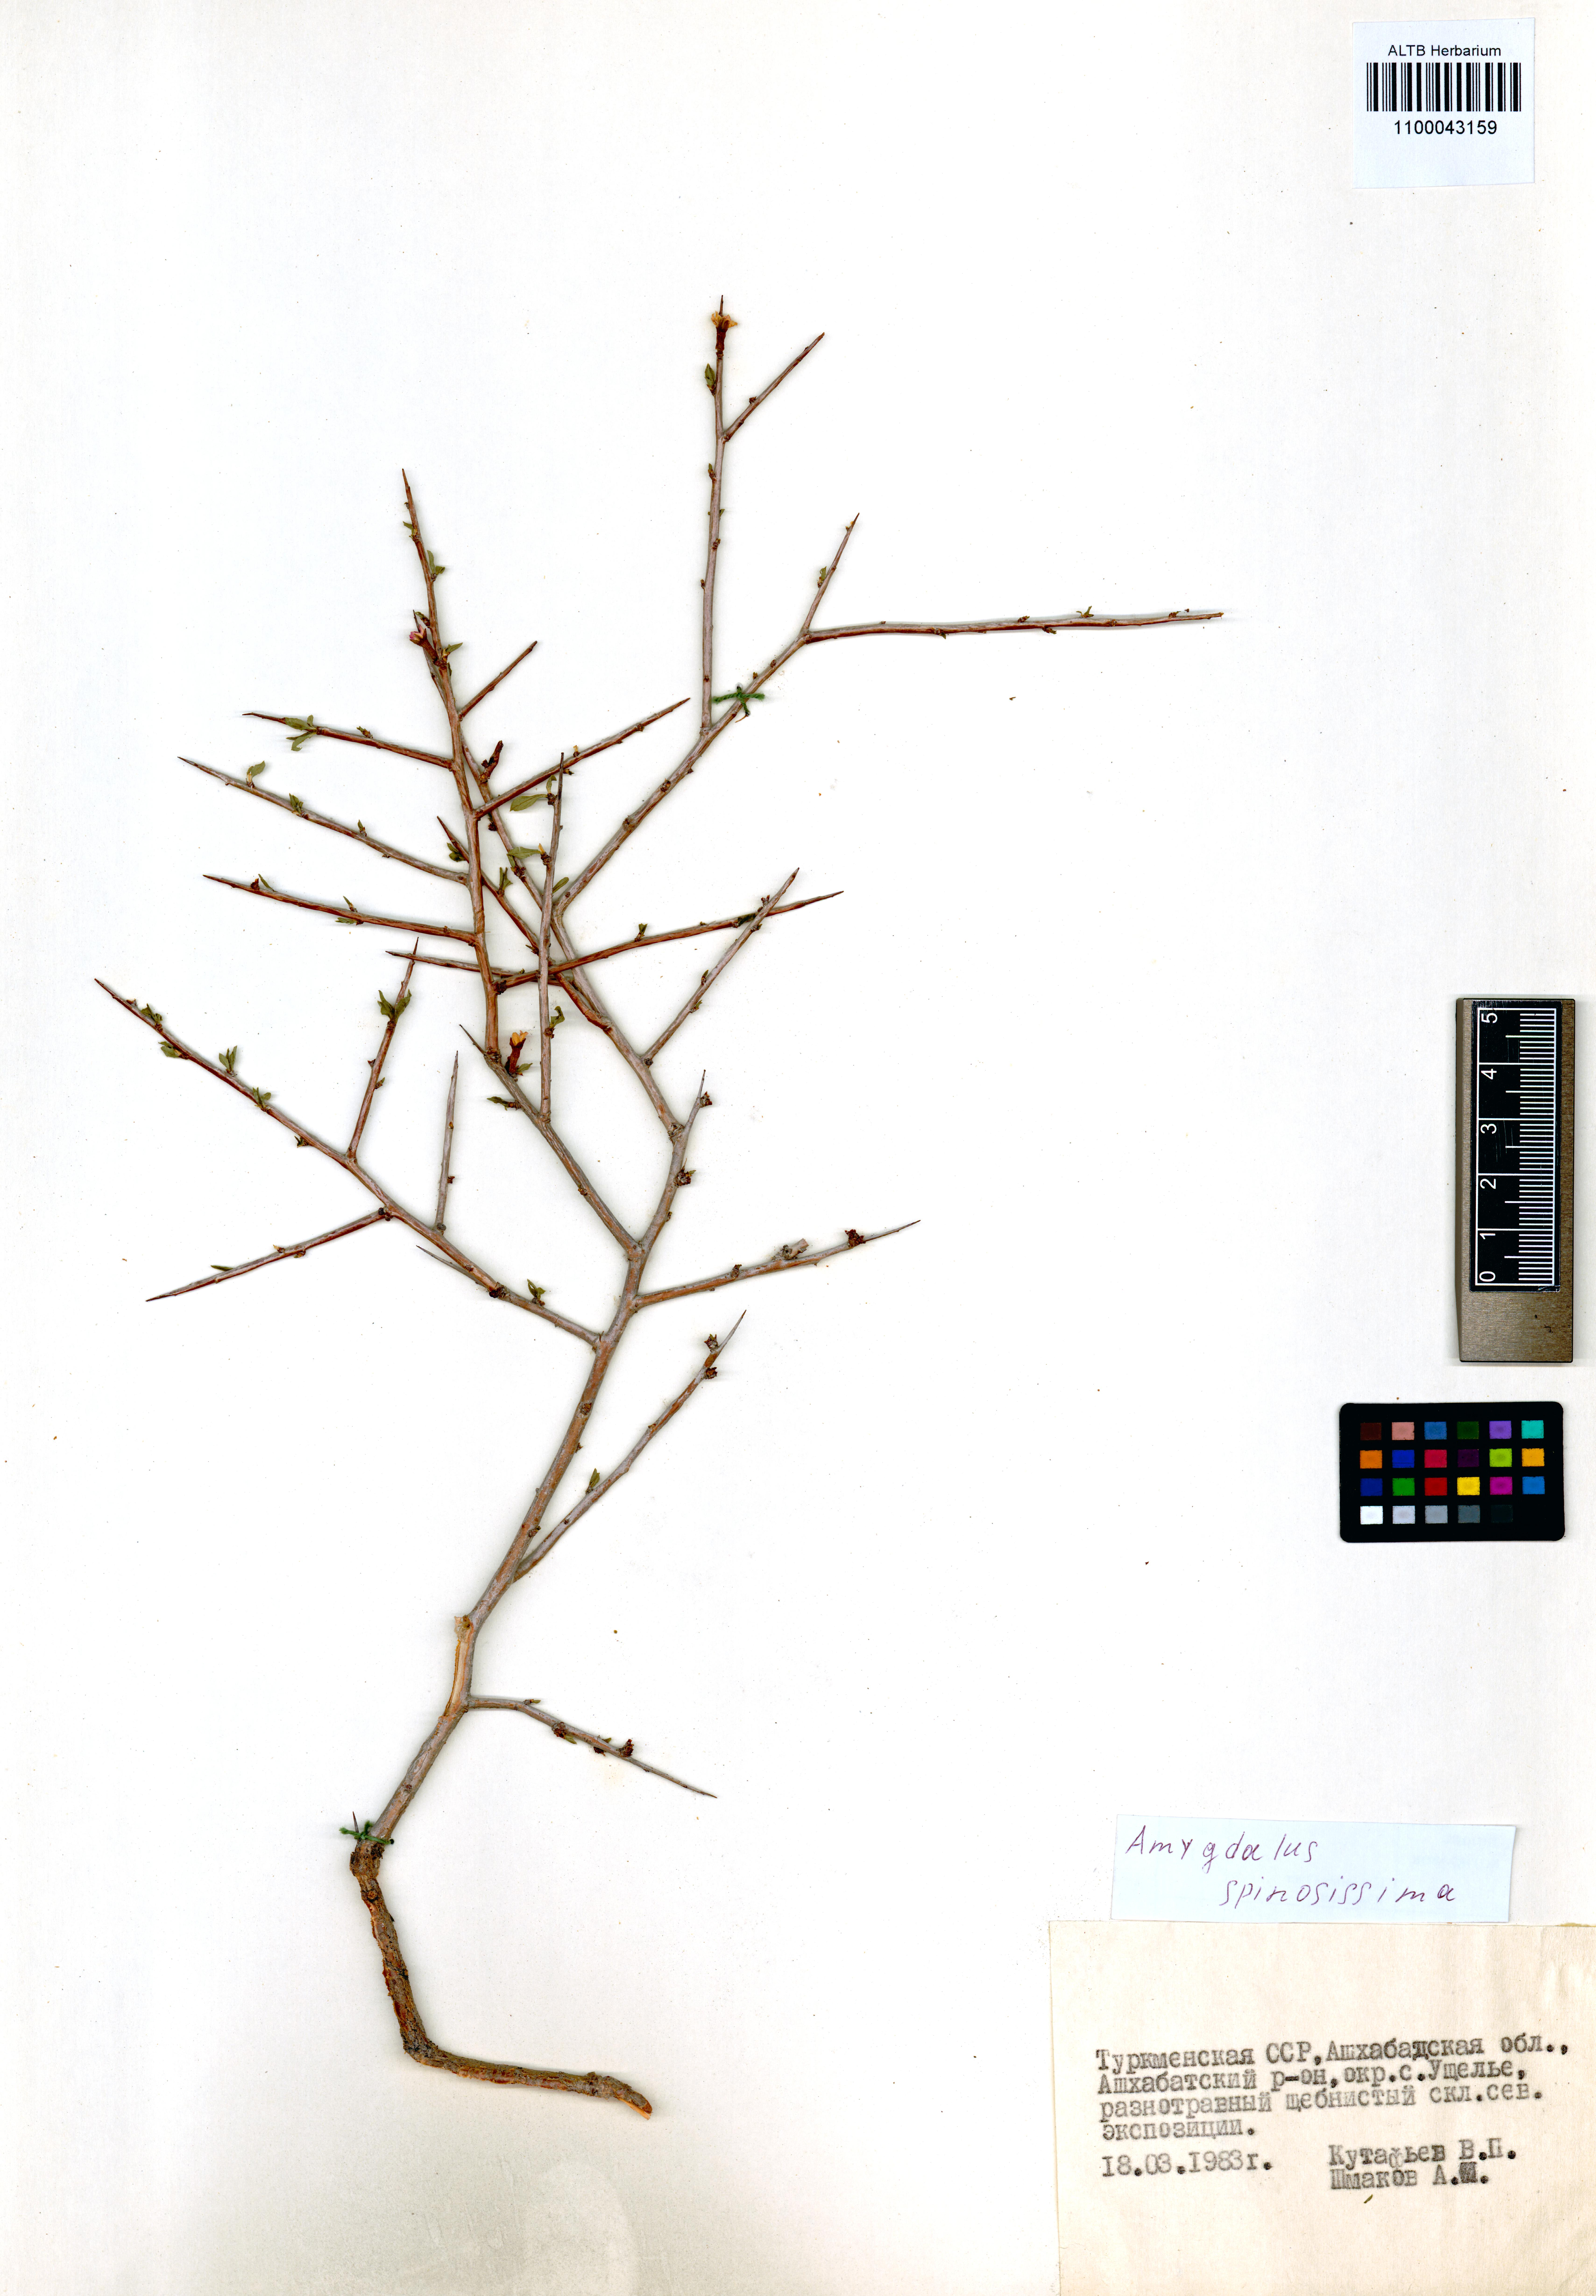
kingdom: Plantae
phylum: Tracheophyta
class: Magnoliopsida
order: Rosales
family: Rosaceae
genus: Prunus
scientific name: Prunus spinosissima
